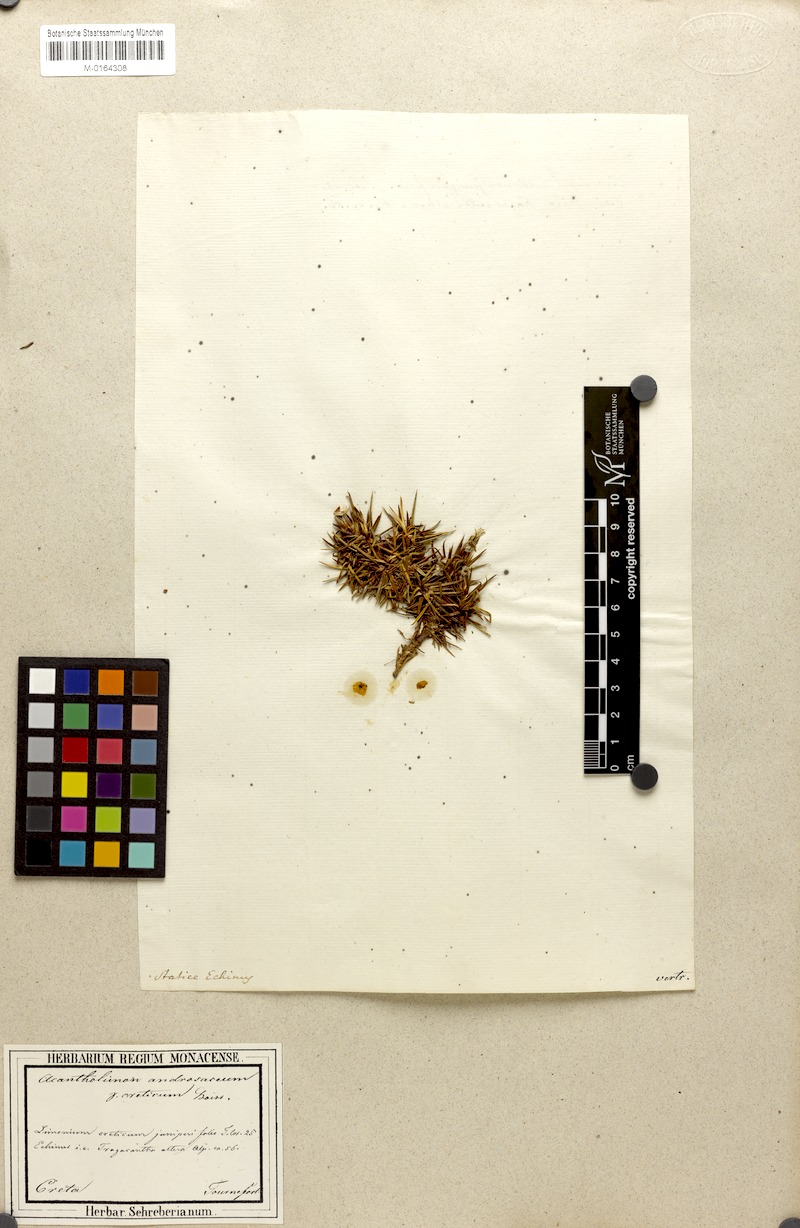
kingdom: Plantae
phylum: Tracheophyta
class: Magnoliopsida
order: Caryophyllales
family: Plumbaginaceae
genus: Acantholimon
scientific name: Acantholimon ulicinum
